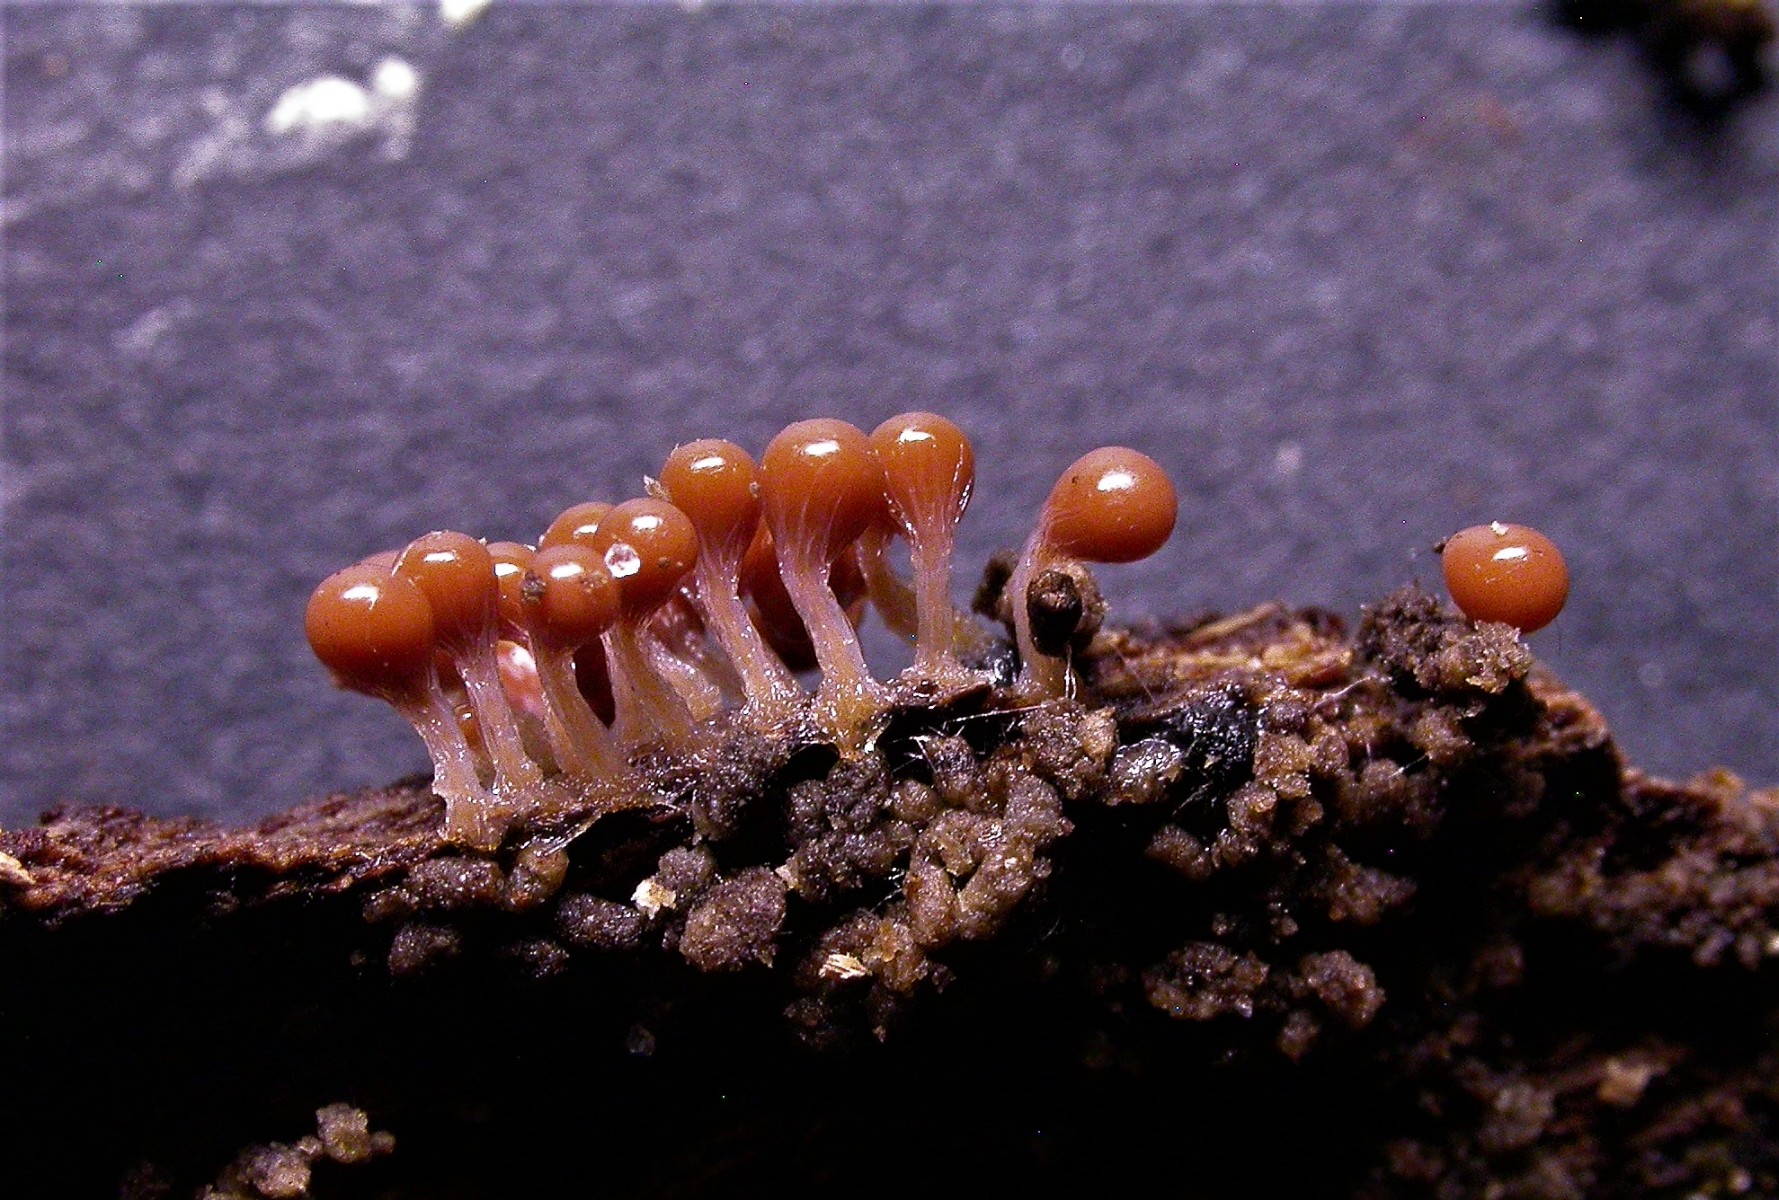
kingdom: Protozoa
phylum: Mycetozoa
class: Myxomycetes
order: Trichiales
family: Arcyriaceae
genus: Hemitrichia
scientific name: Hemitrichia decipiens
